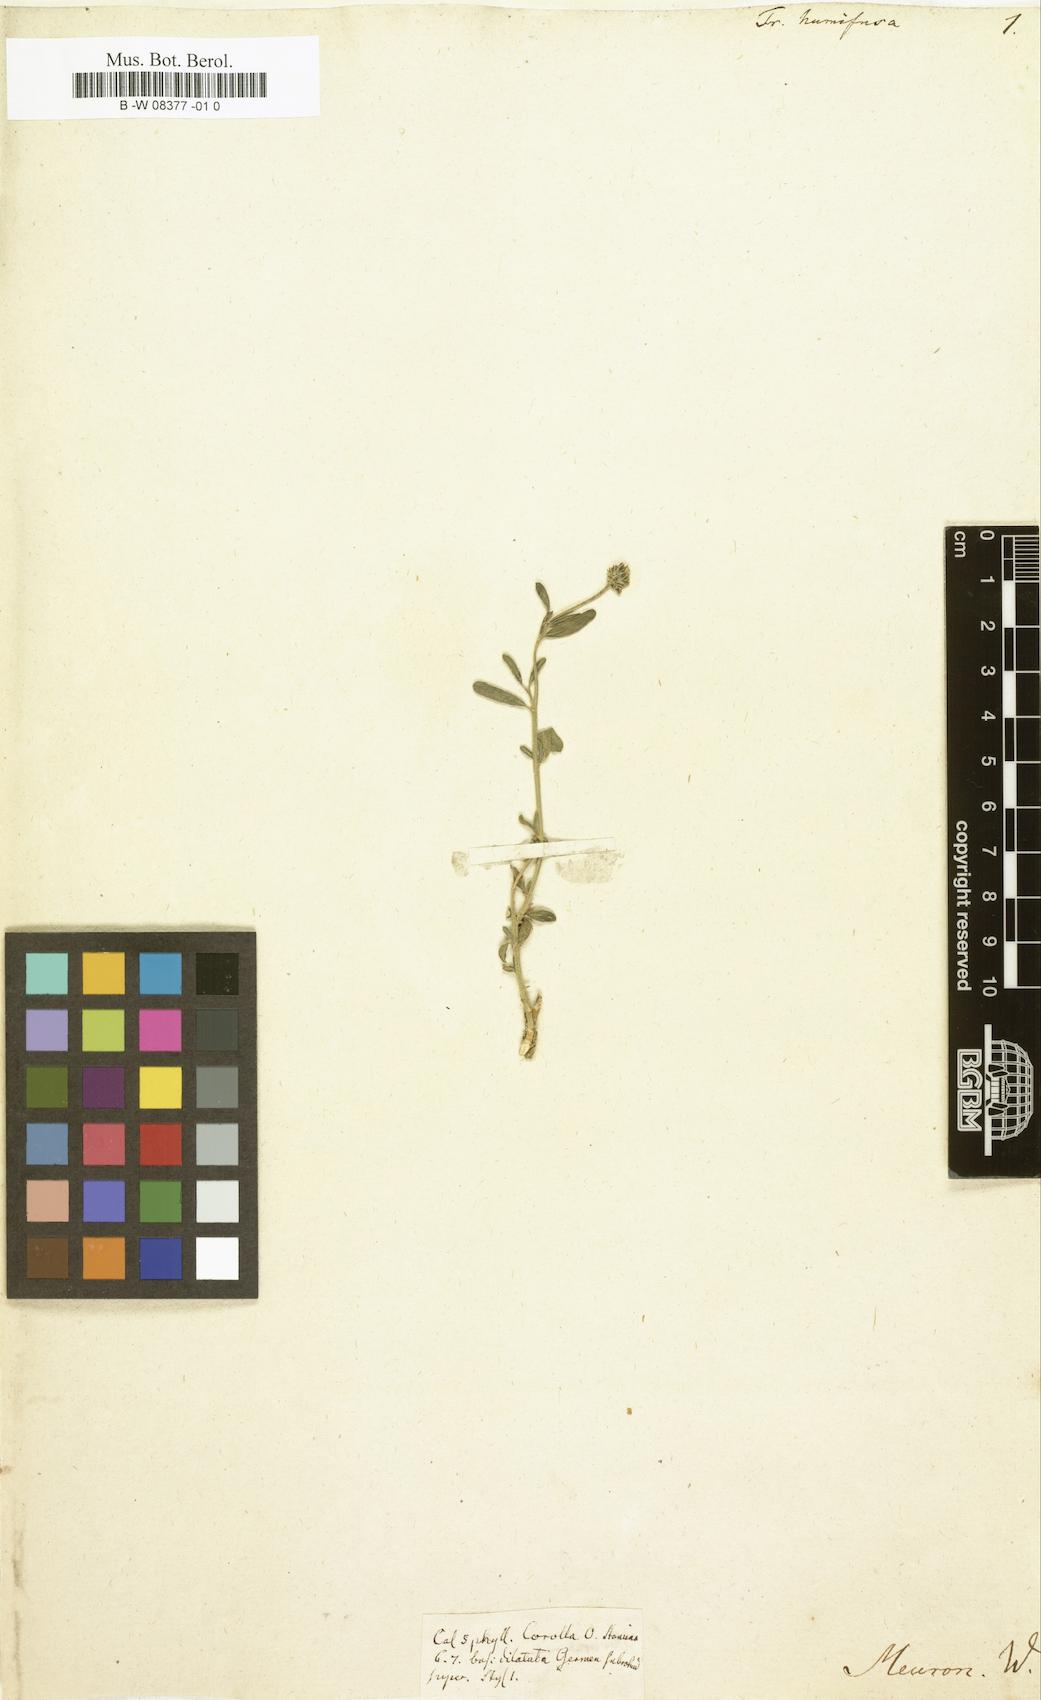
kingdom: Plantae
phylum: Tracheophyta
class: Magnoliopsida
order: Caryophyllales
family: Aizoaceae
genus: Acrosanthes
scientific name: Acrosanthes humifusa
